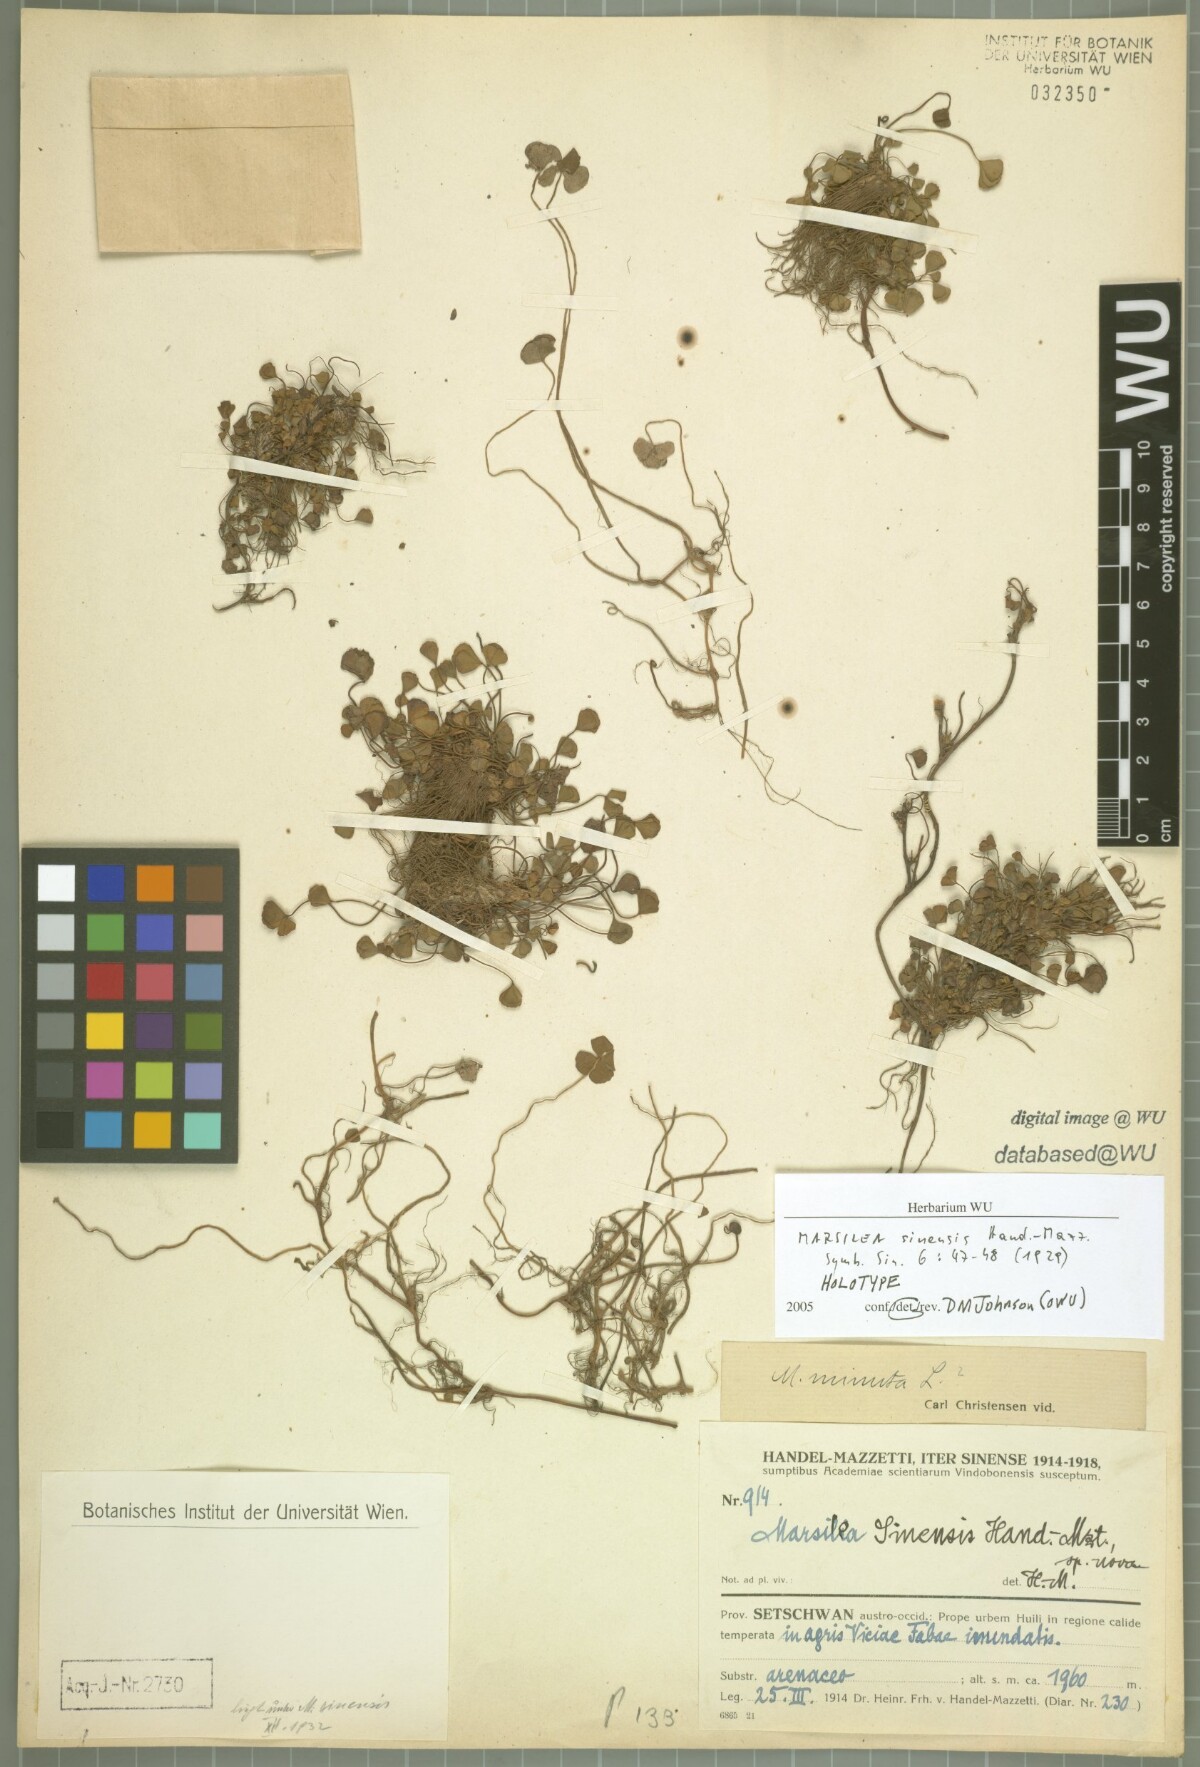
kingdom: Plantae
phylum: Tracheophyta
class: Polypodiopsida
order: Salviniales
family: Marsileaceae
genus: Marsilea
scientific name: Marsilea minuta
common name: Dwarf waterclover
